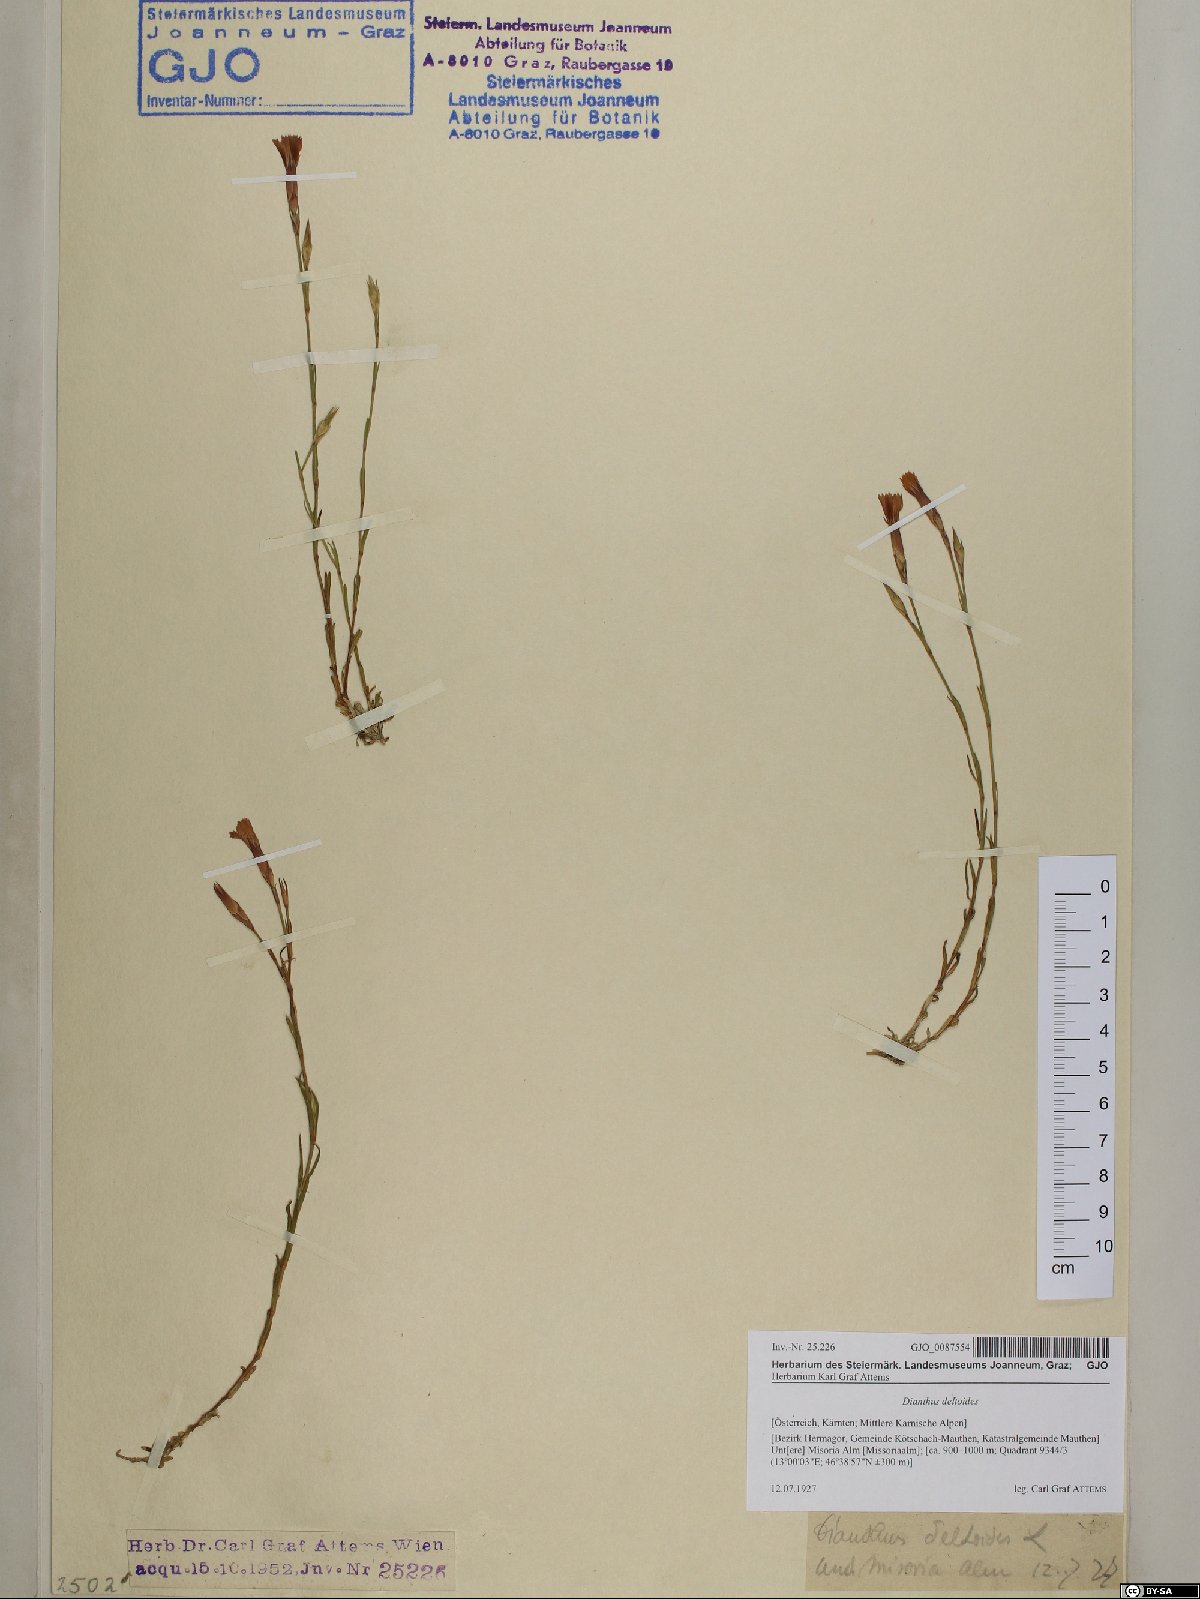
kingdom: Plantae
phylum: Tracheophyta
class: Magnoliopsida
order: Caryophyllales
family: Caryophyllaceae
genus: Dianthus
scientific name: Dianthus deltoides
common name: Maiden pink
